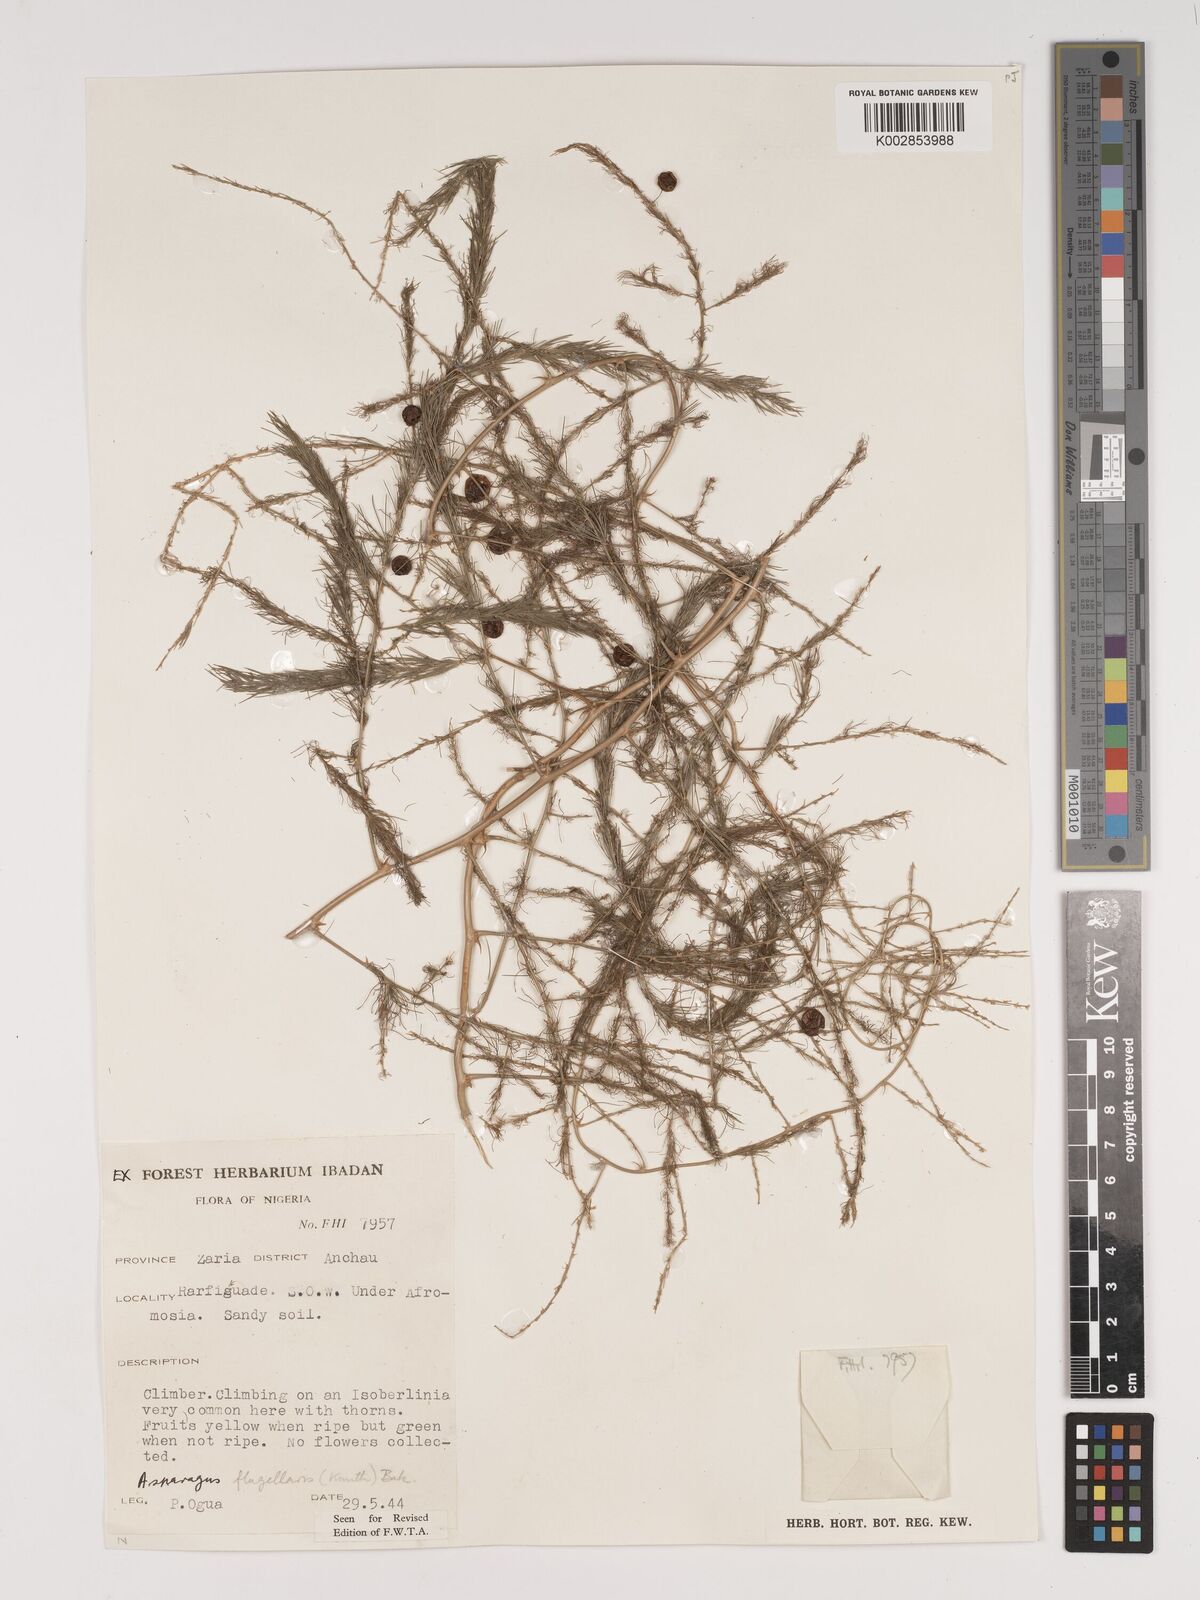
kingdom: Plantae
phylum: Tracheophyta
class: Liliopsida
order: Asparagales
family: Asparagaceae
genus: Asparagus
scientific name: Asparagus
